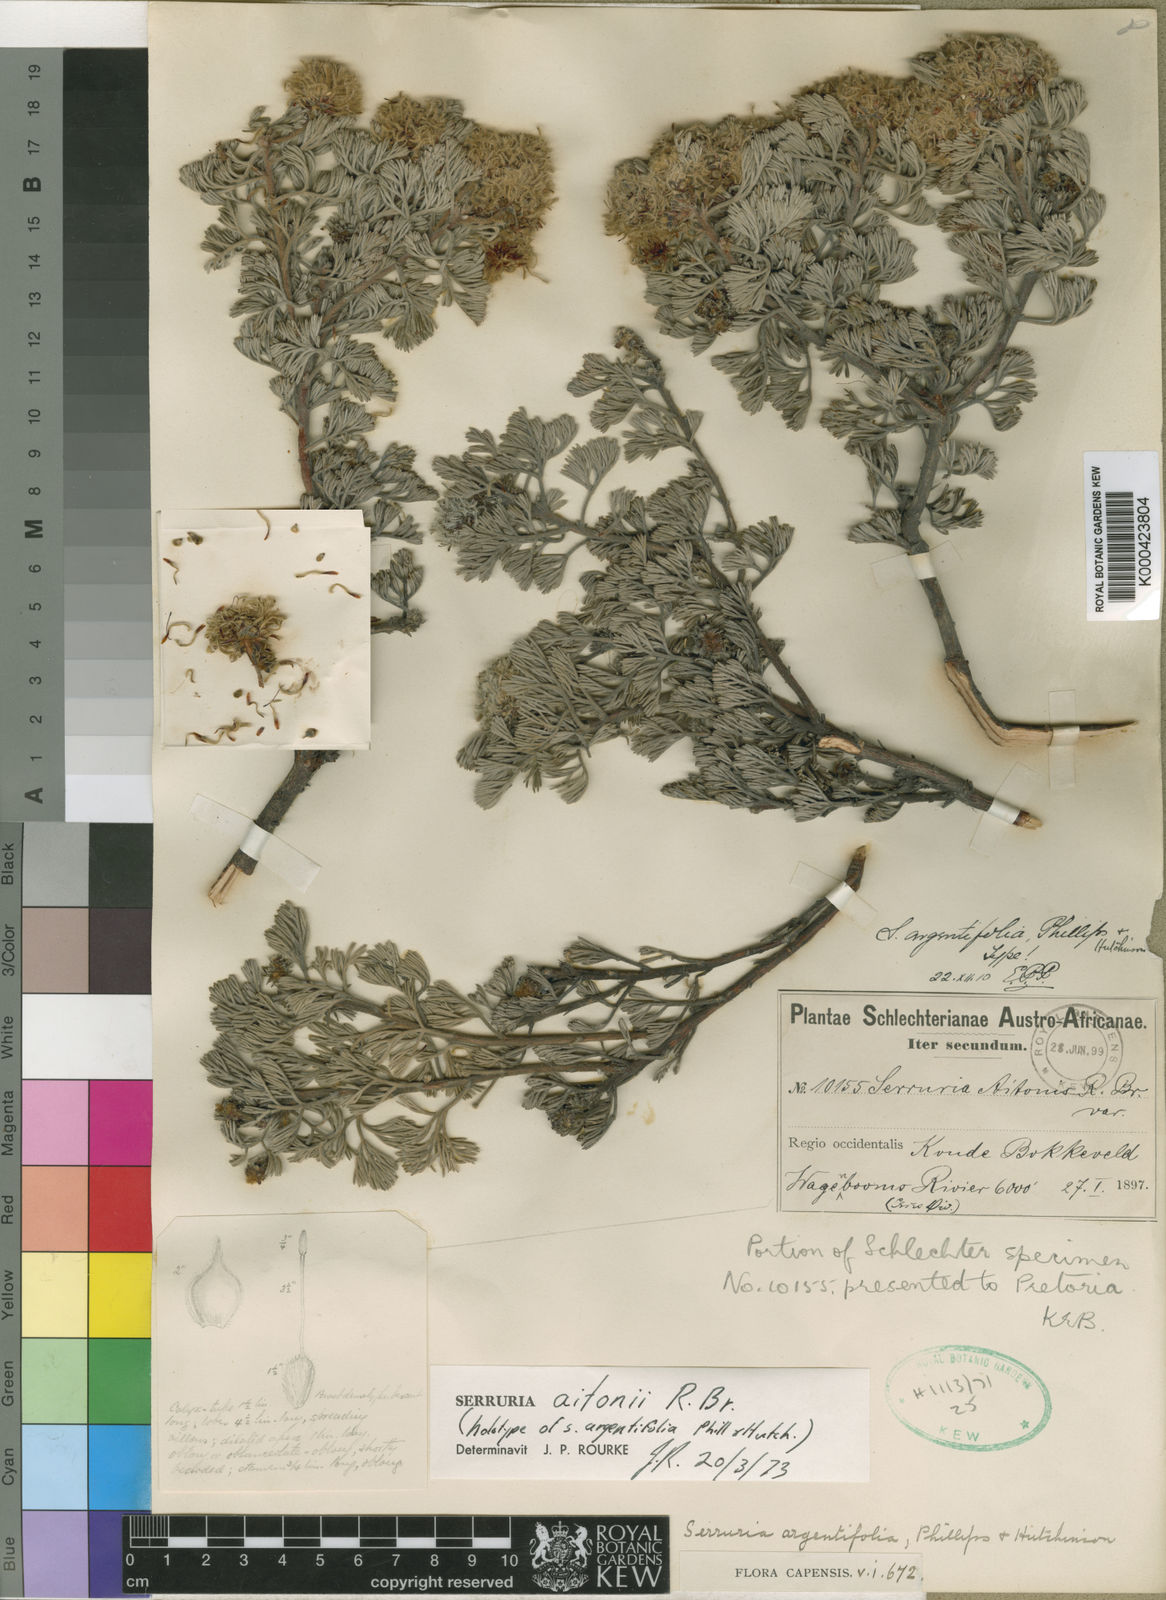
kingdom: Plantae
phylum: Tracheophyta
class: Magnoliopsida
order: Proteales
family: Proteaceae
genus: Serruria
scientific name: Serruria aitonii
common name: Marshmallow spiderhead
